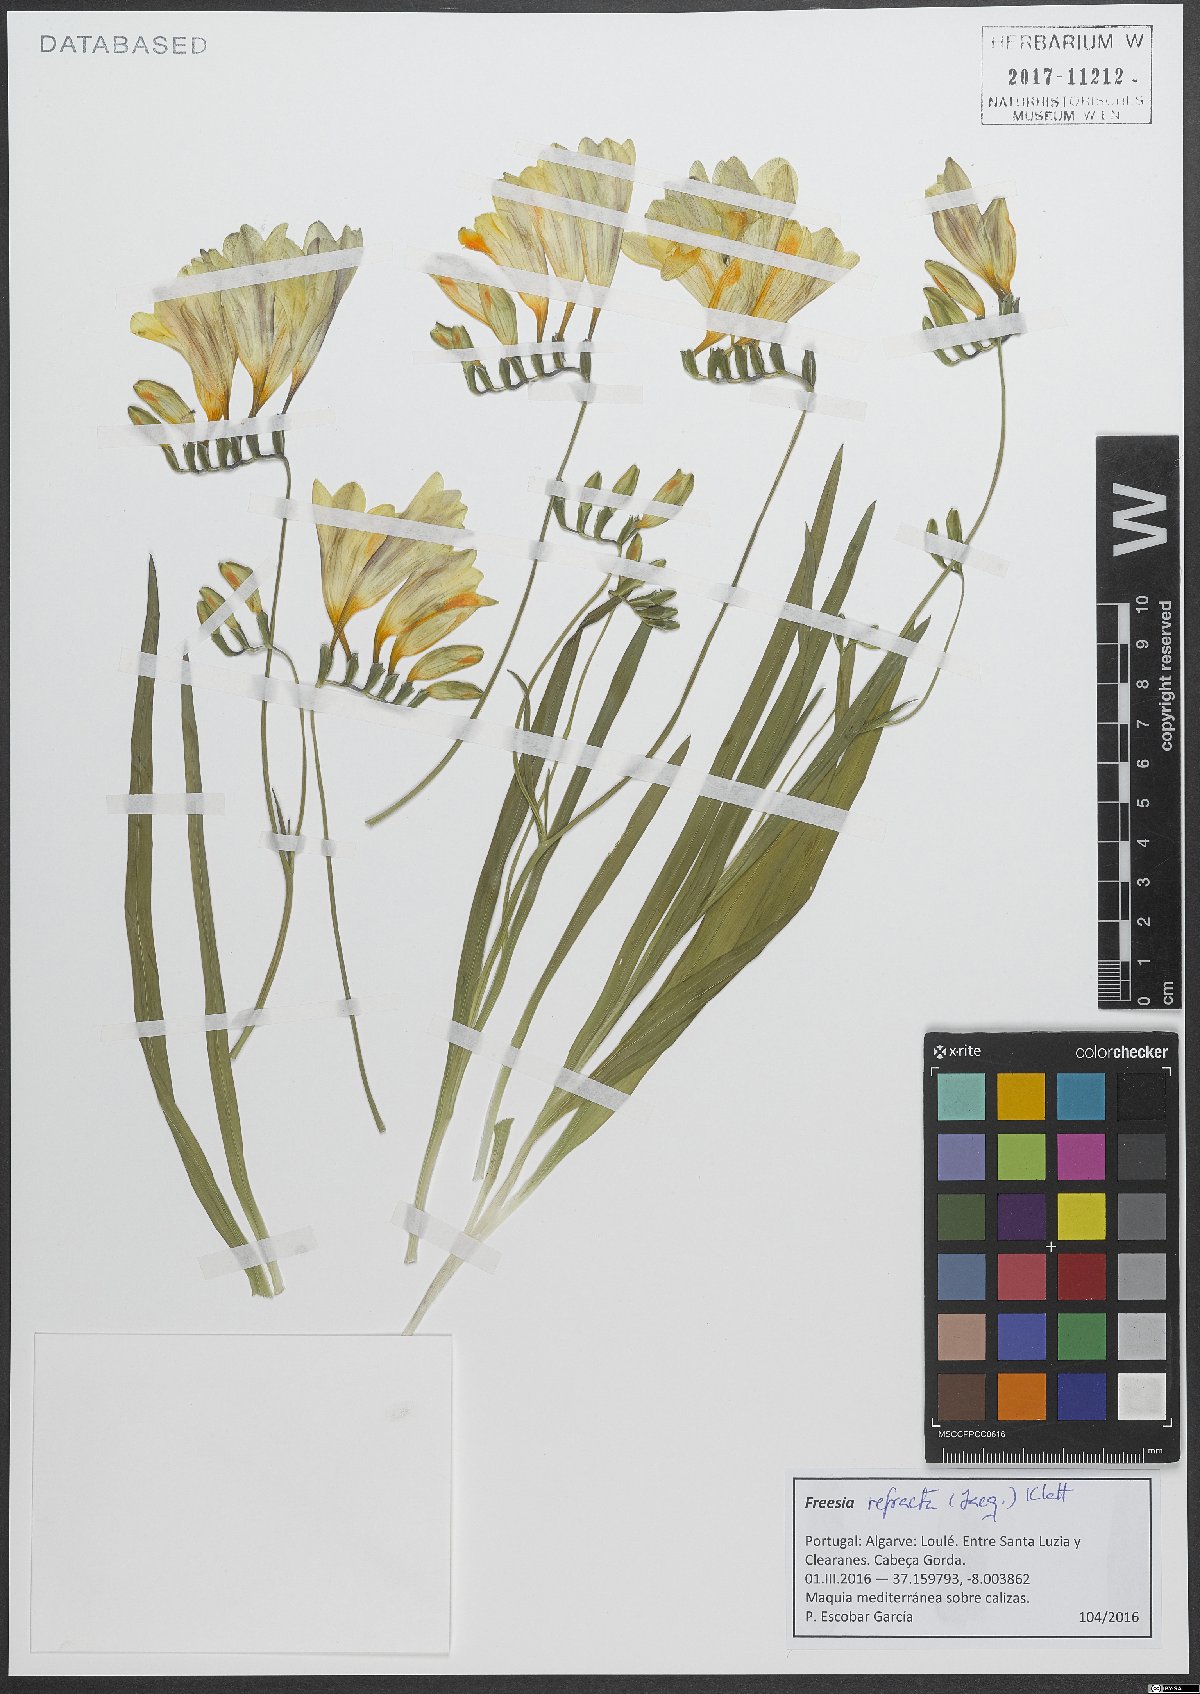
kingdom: Plantae
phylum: Tracheophyta
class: Liliopsida
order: Asparagales
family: Iridaceae
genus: Freesia
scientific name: Freesia refracta
